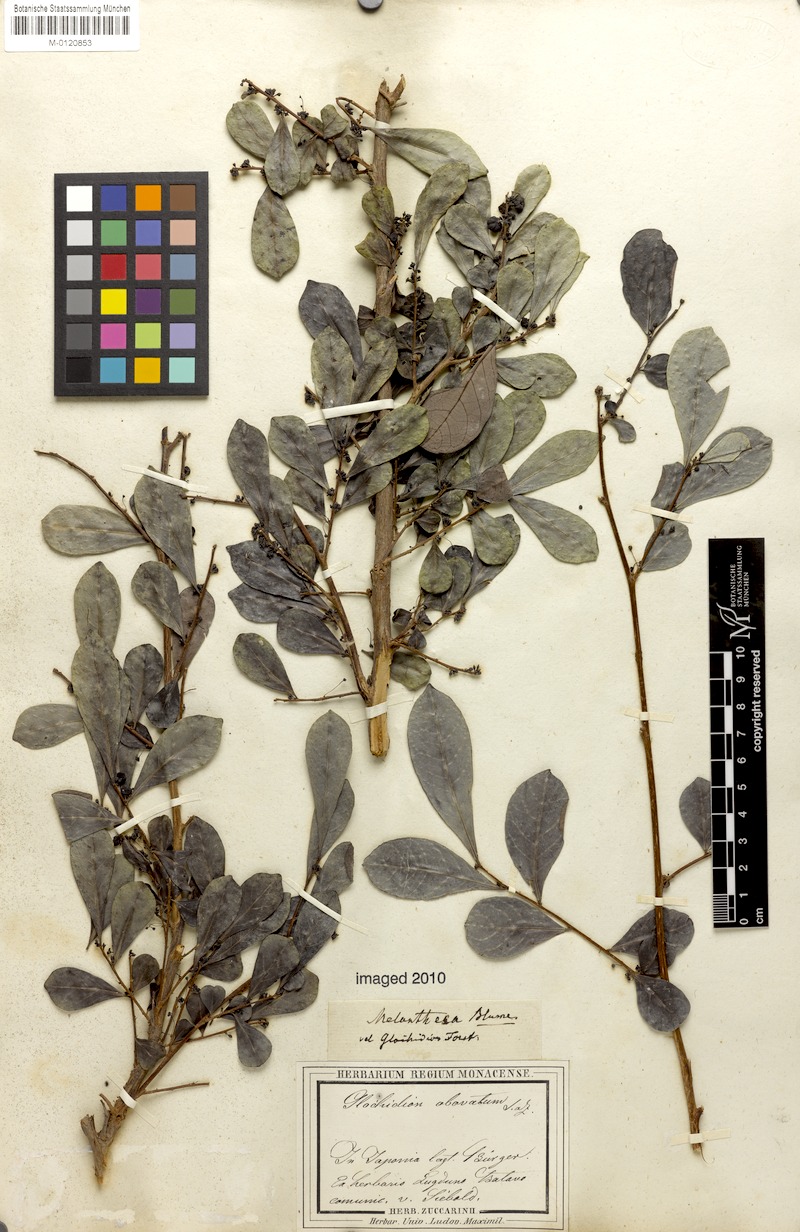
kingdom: Plantae
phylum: Tracheophyta
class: Magnoliopsida
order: Malpighiales
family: Phyllanthaceae
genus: Glochidion
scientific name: Glochidion obovatum
